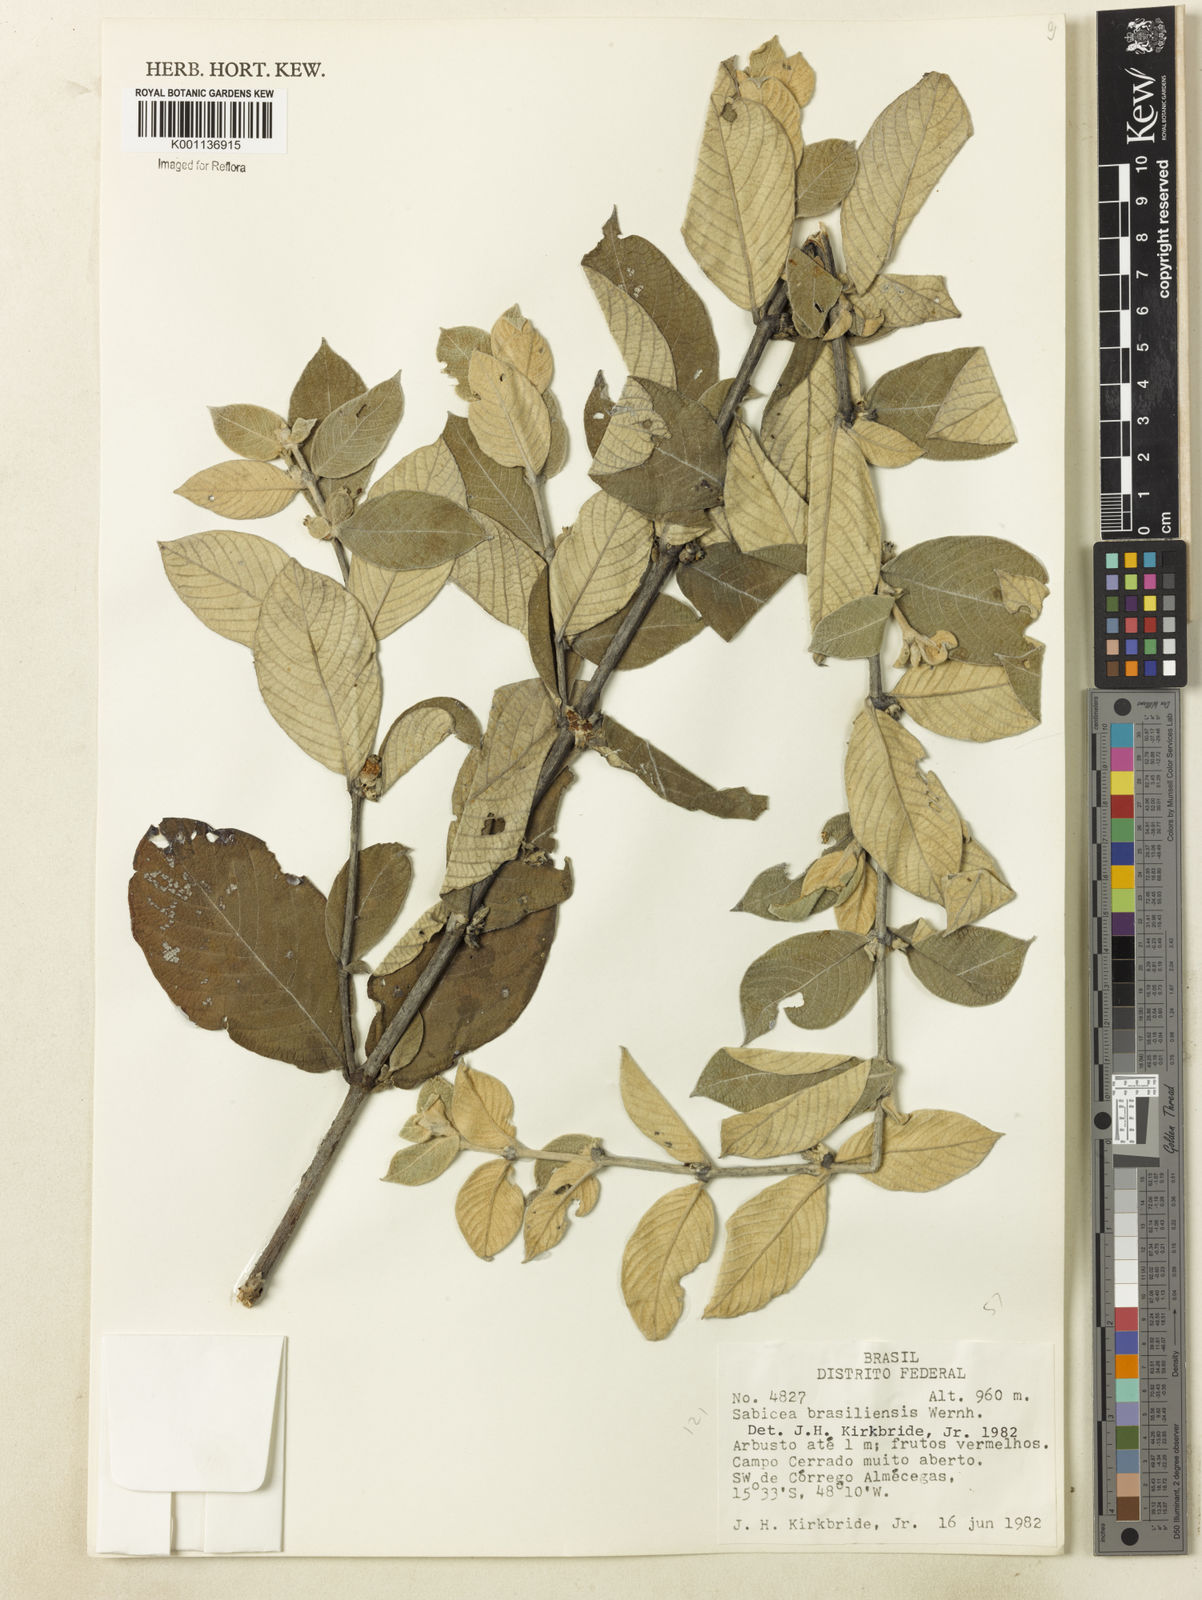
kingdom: Plantae
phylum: Tracheophyta
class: Magnoliopsida
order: Gentianales
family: Rubiaceae
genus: Sabicea
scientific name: Sabicea brasiliensis
